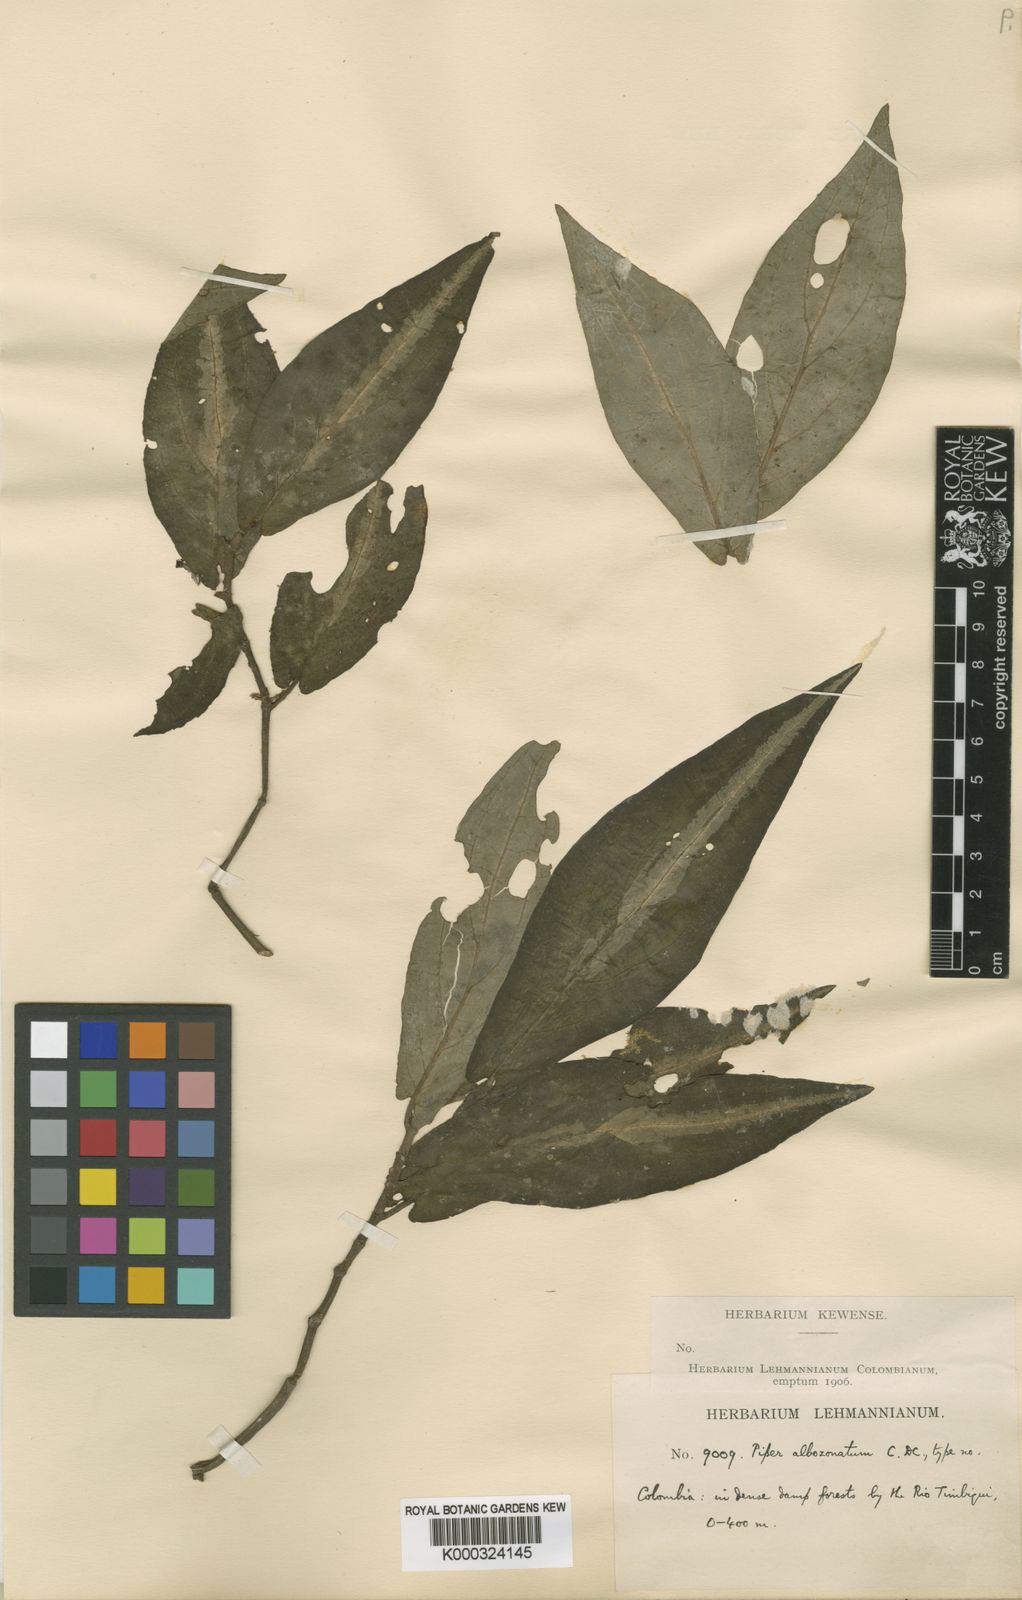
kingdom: Plantae
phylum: Tracheophyta
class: Magnoliopsida
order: Piperales
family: Piperaceae
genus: Piper
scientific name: Piper albozonatum
